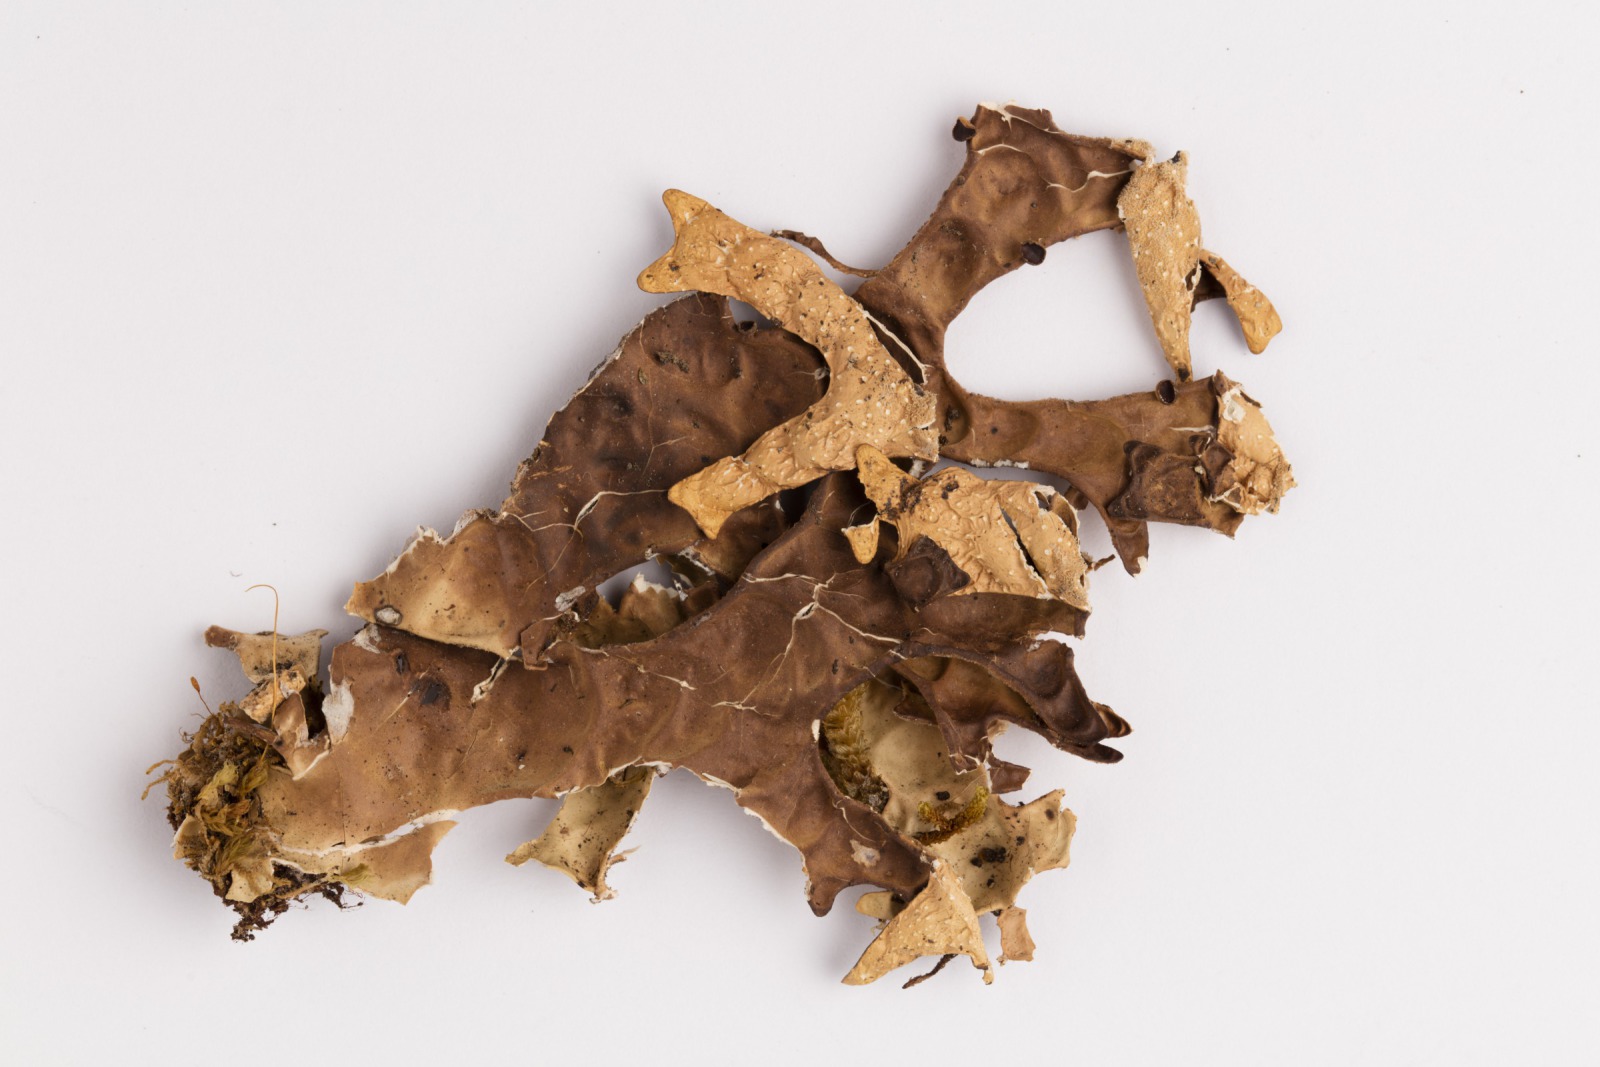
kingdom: Fungi
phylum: Ascomycota
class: Lecanoromycetes
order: Peltigerales
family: Lobariaceae
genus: Pseudocyphellaria
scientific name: Pseudocyphellaria billardierei
